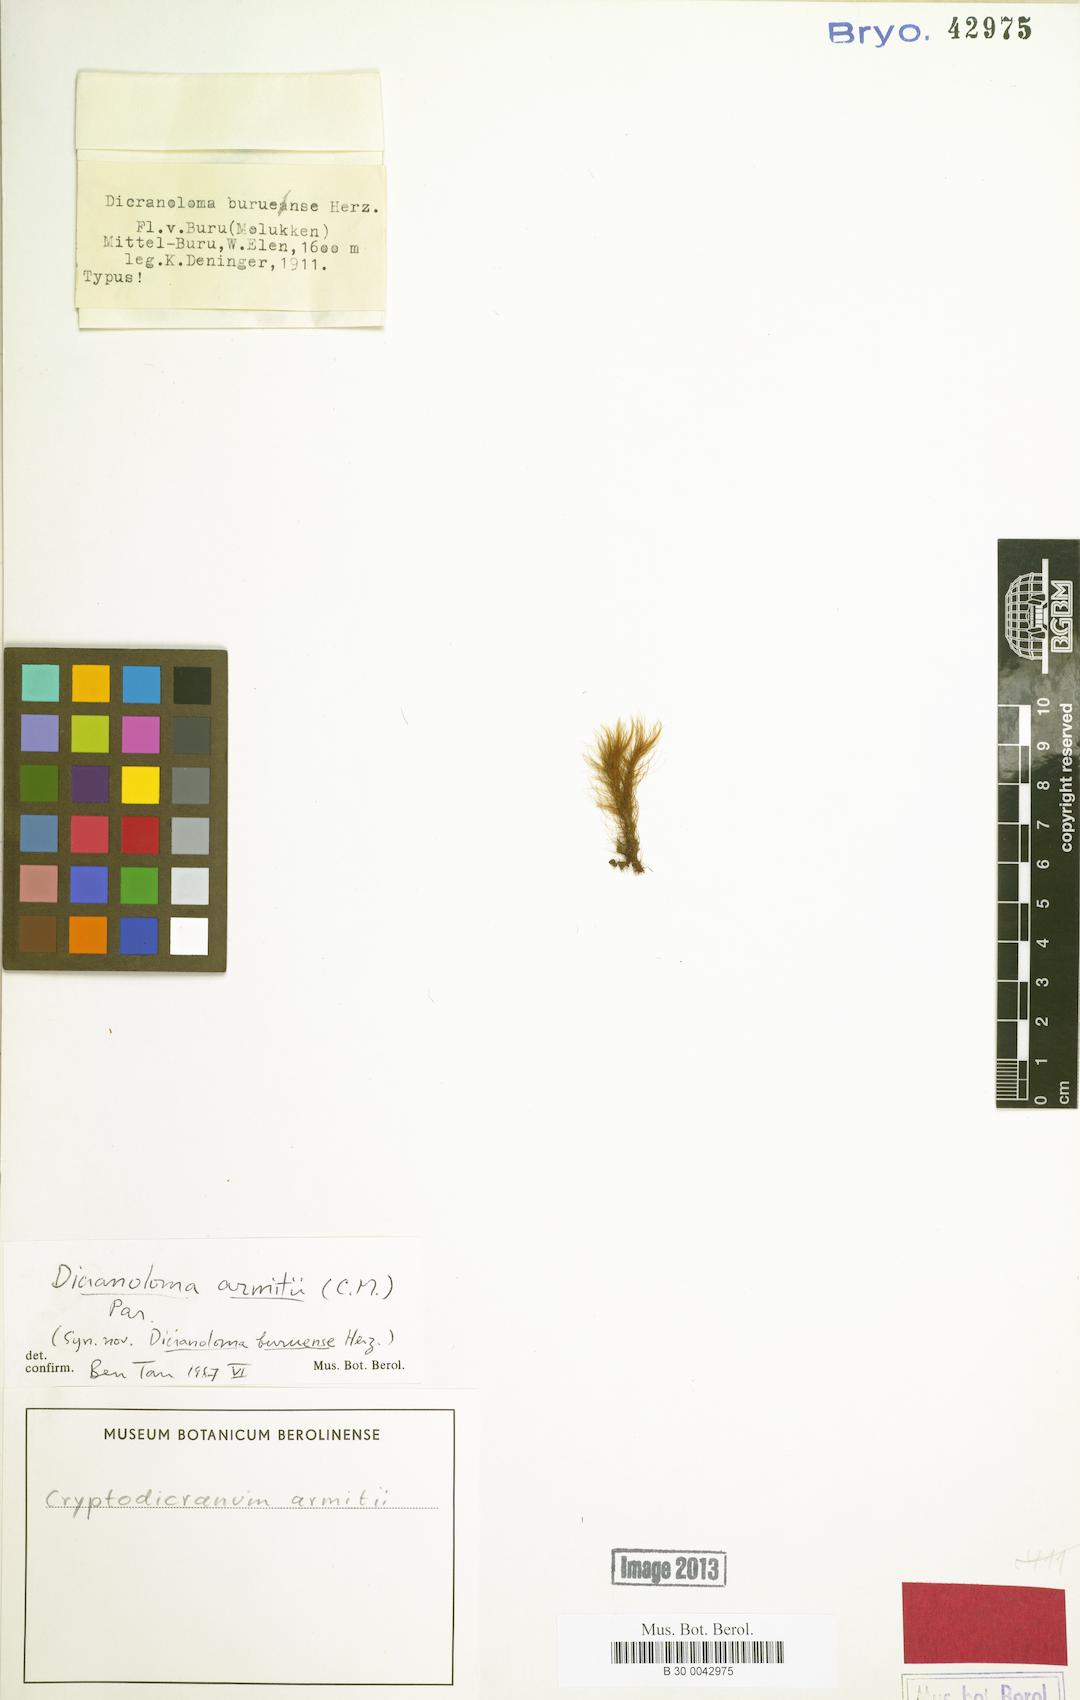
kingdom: Plantae
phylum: Bryophyta
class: Bryopsida
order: Dicranales
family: Dicranaceae
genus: Cryptodicranum
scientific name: Cryptodicranum armitii
